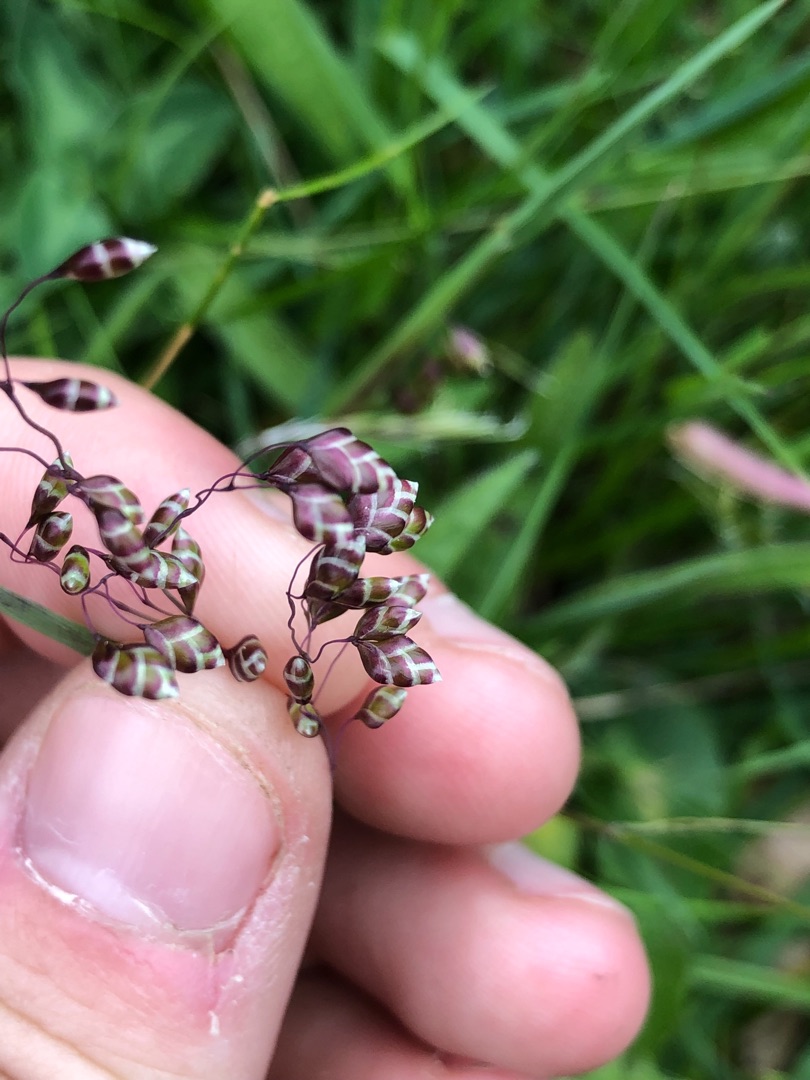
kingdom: Plantae
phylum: Tracheophyta
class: Liliopsida
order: Poales
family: Poaceae
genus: Briza
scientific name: Briza media
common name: Hjertegræs
